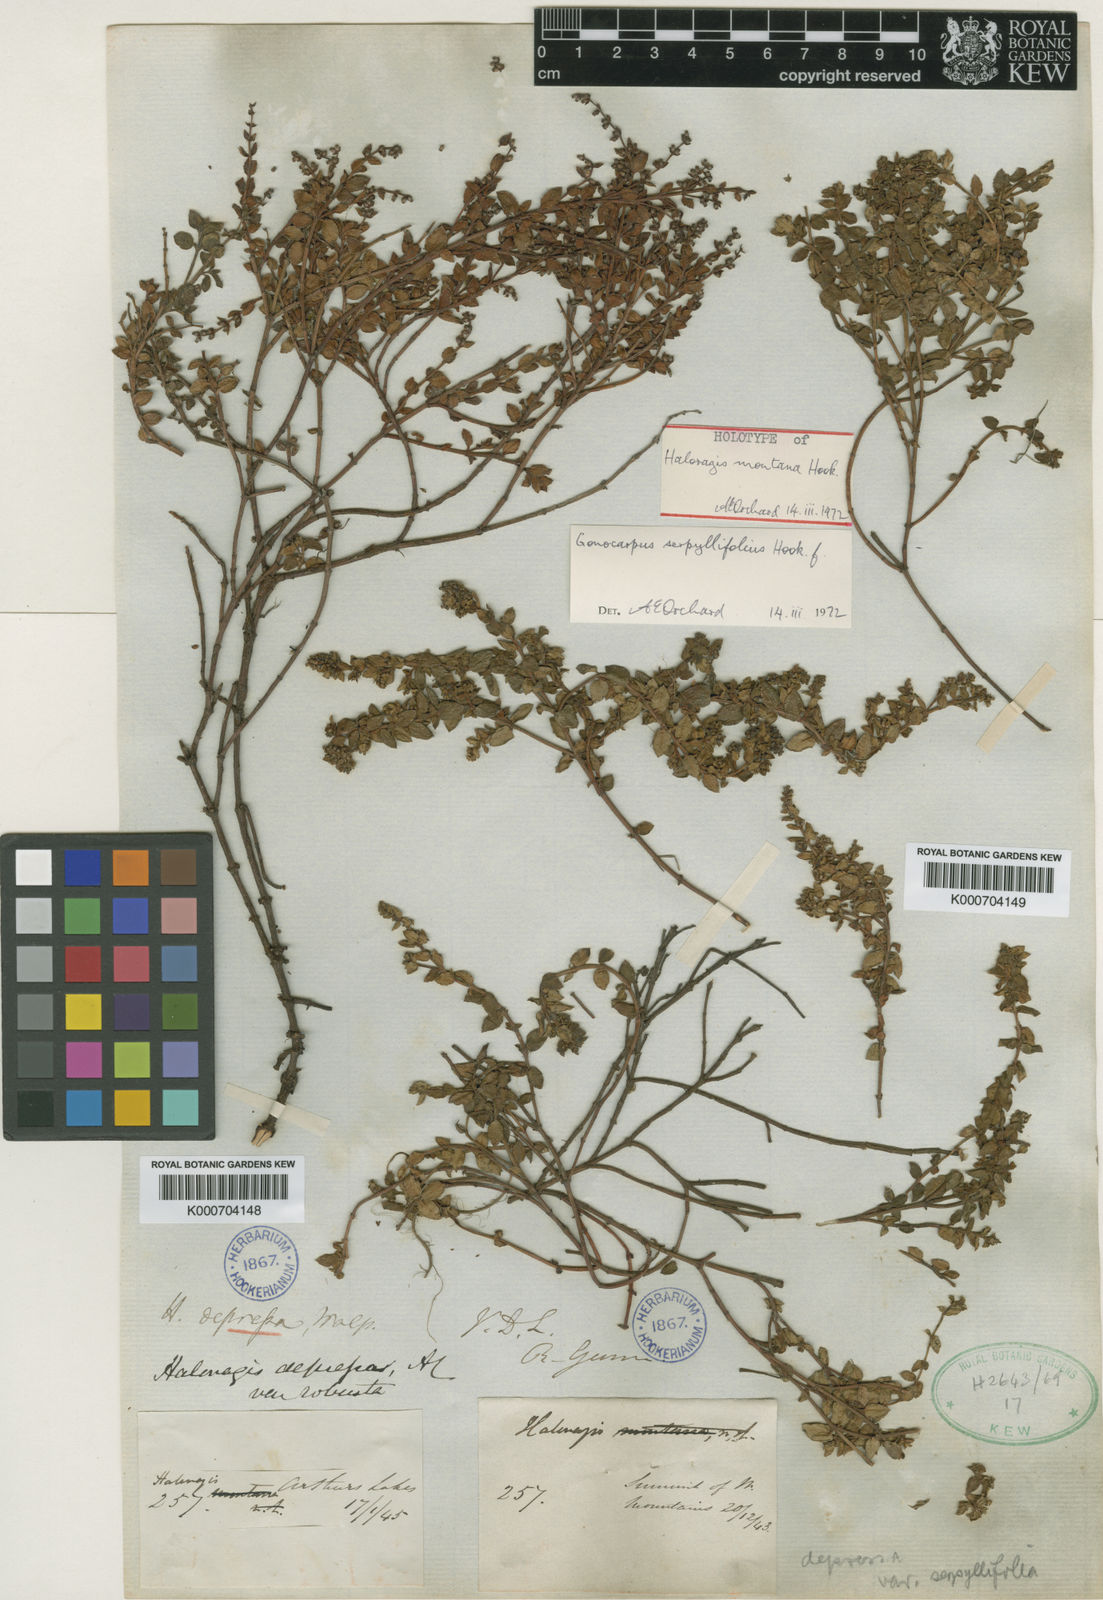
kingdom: Plantae
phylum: Tracheophyta
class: Magnoliopsida
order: Saxifragales
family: Haloragaceae
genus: Gonocarpus
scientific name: Gonocarpus montanus
